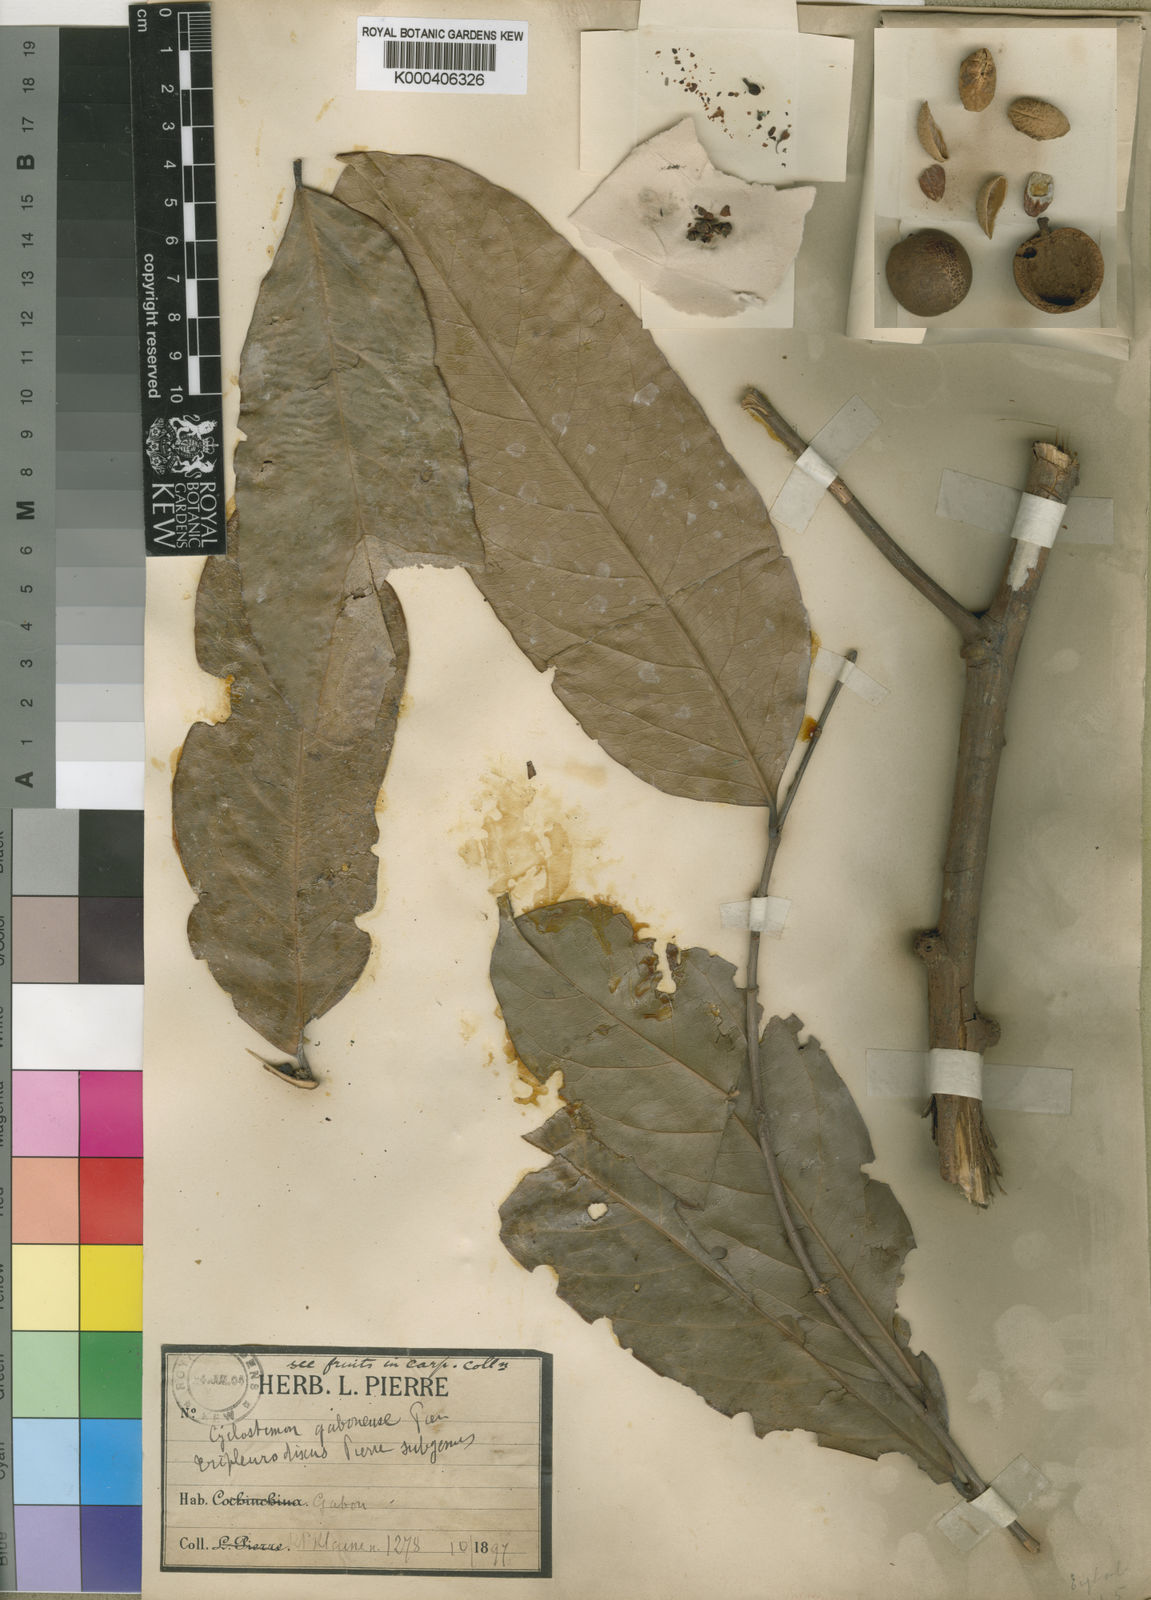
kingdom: Plantae
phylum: Tracheophyta
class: Magnoliopsida
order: Malpighiales
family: Putranjivaceae
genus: Drypetes
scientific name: Drypetes gabonensis
